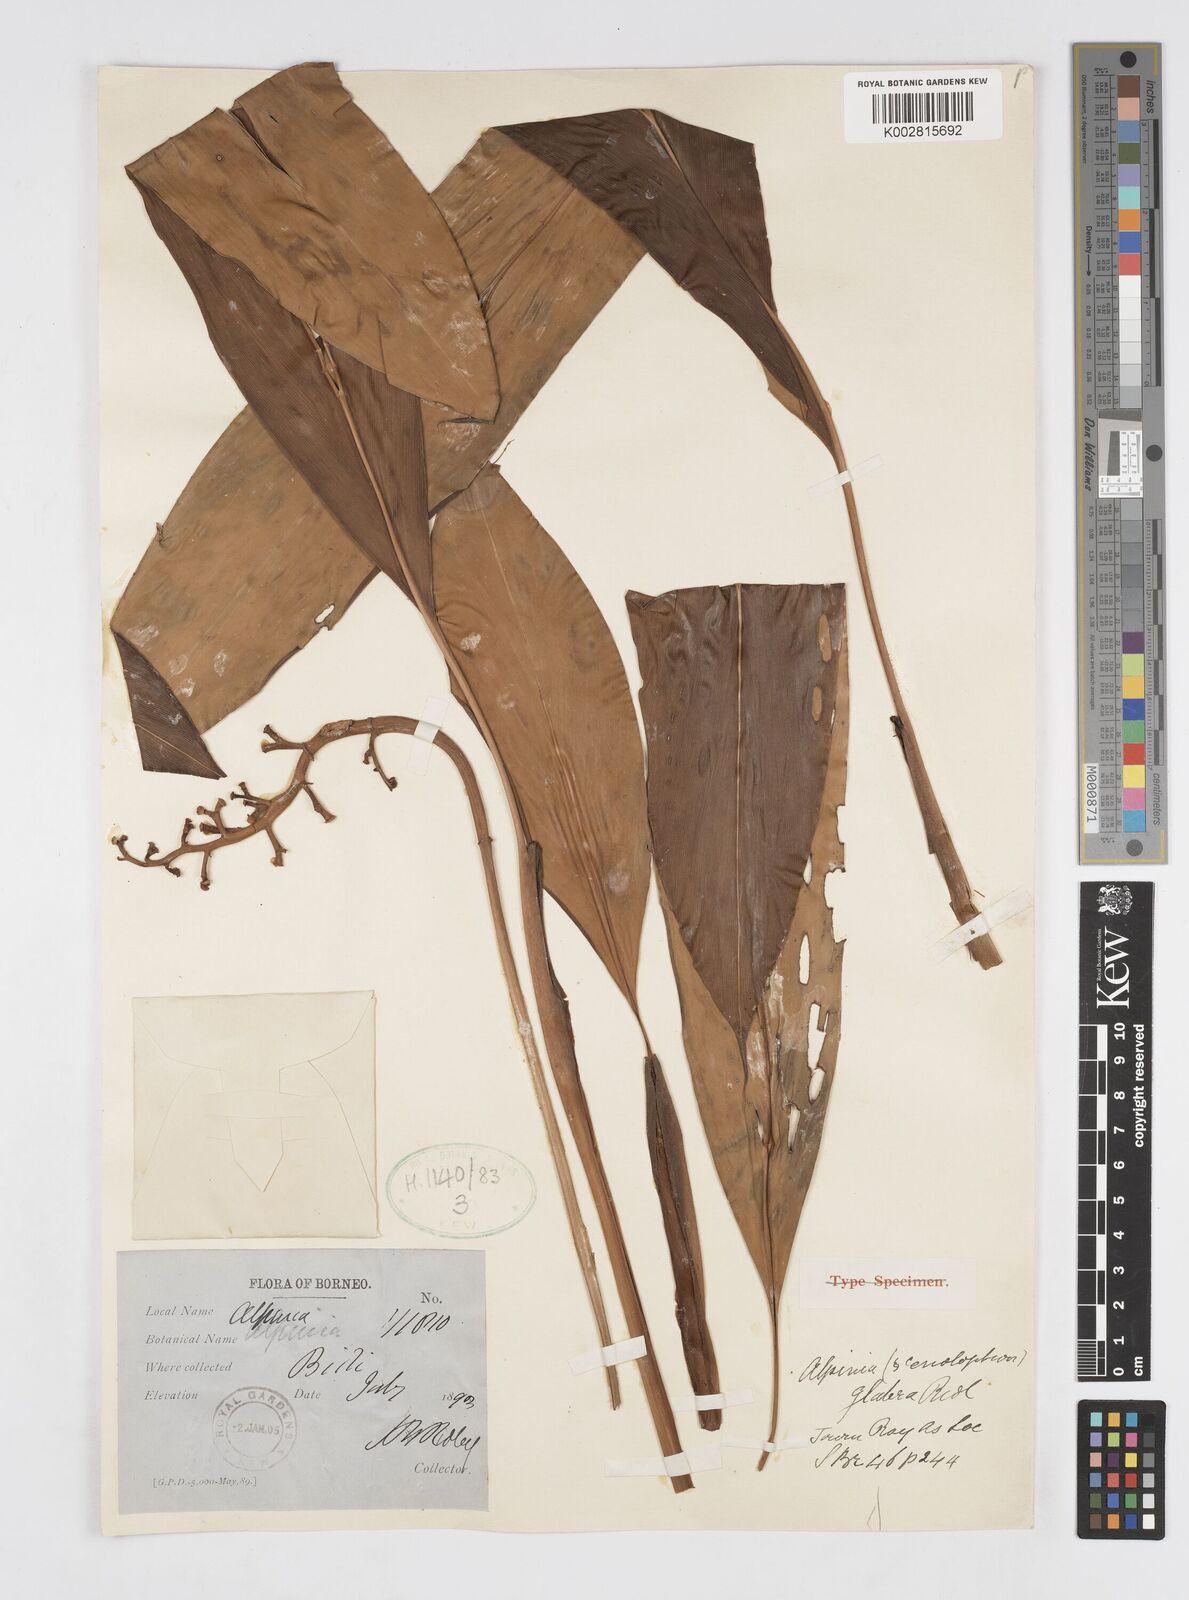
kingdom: Plantae
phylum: Tracheophyta
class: Liliopsida
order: Zingiberales
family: Zingiberaceae
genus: Alpinia
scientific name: Alpinia glabra
